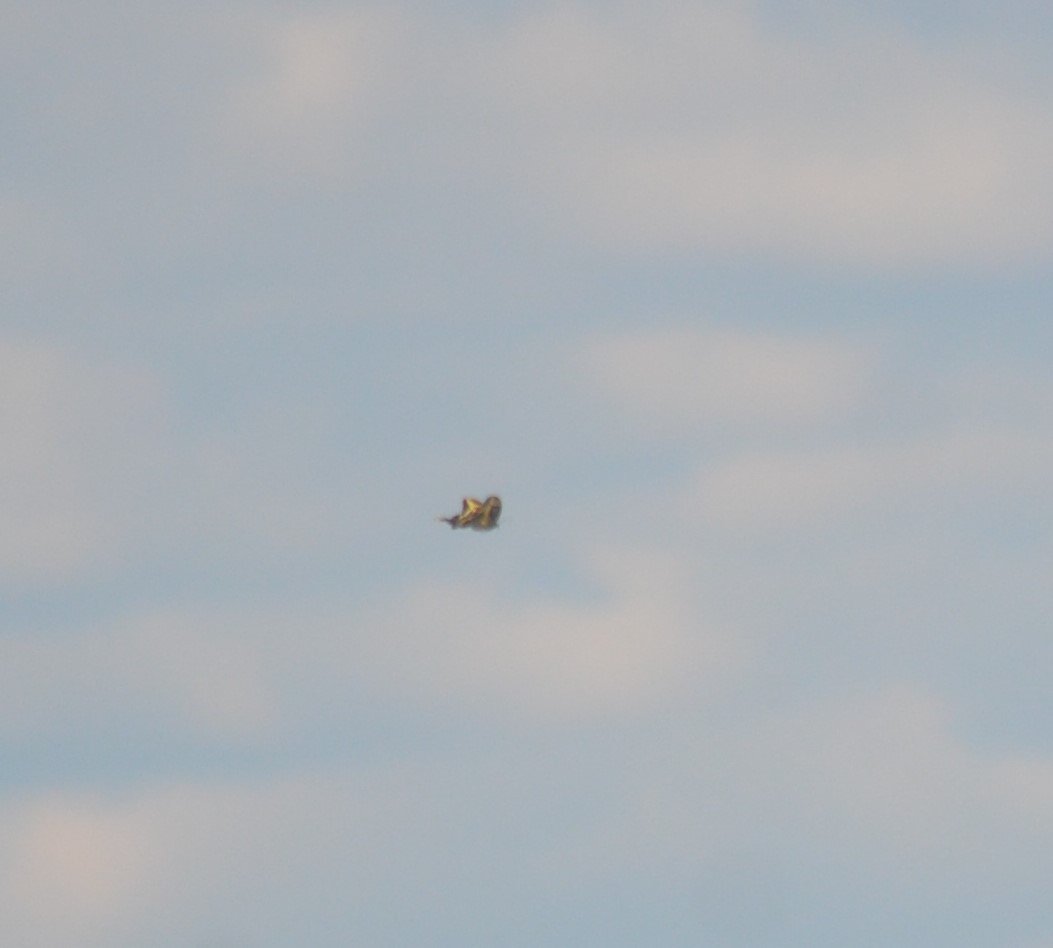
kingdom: Animalia
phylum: Arthropoda
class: Insecta
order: Lepidoptera
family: Papilionidae
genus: Papilio
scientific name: Papilio cresphontes
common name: Eastern Giant Swallowtail
